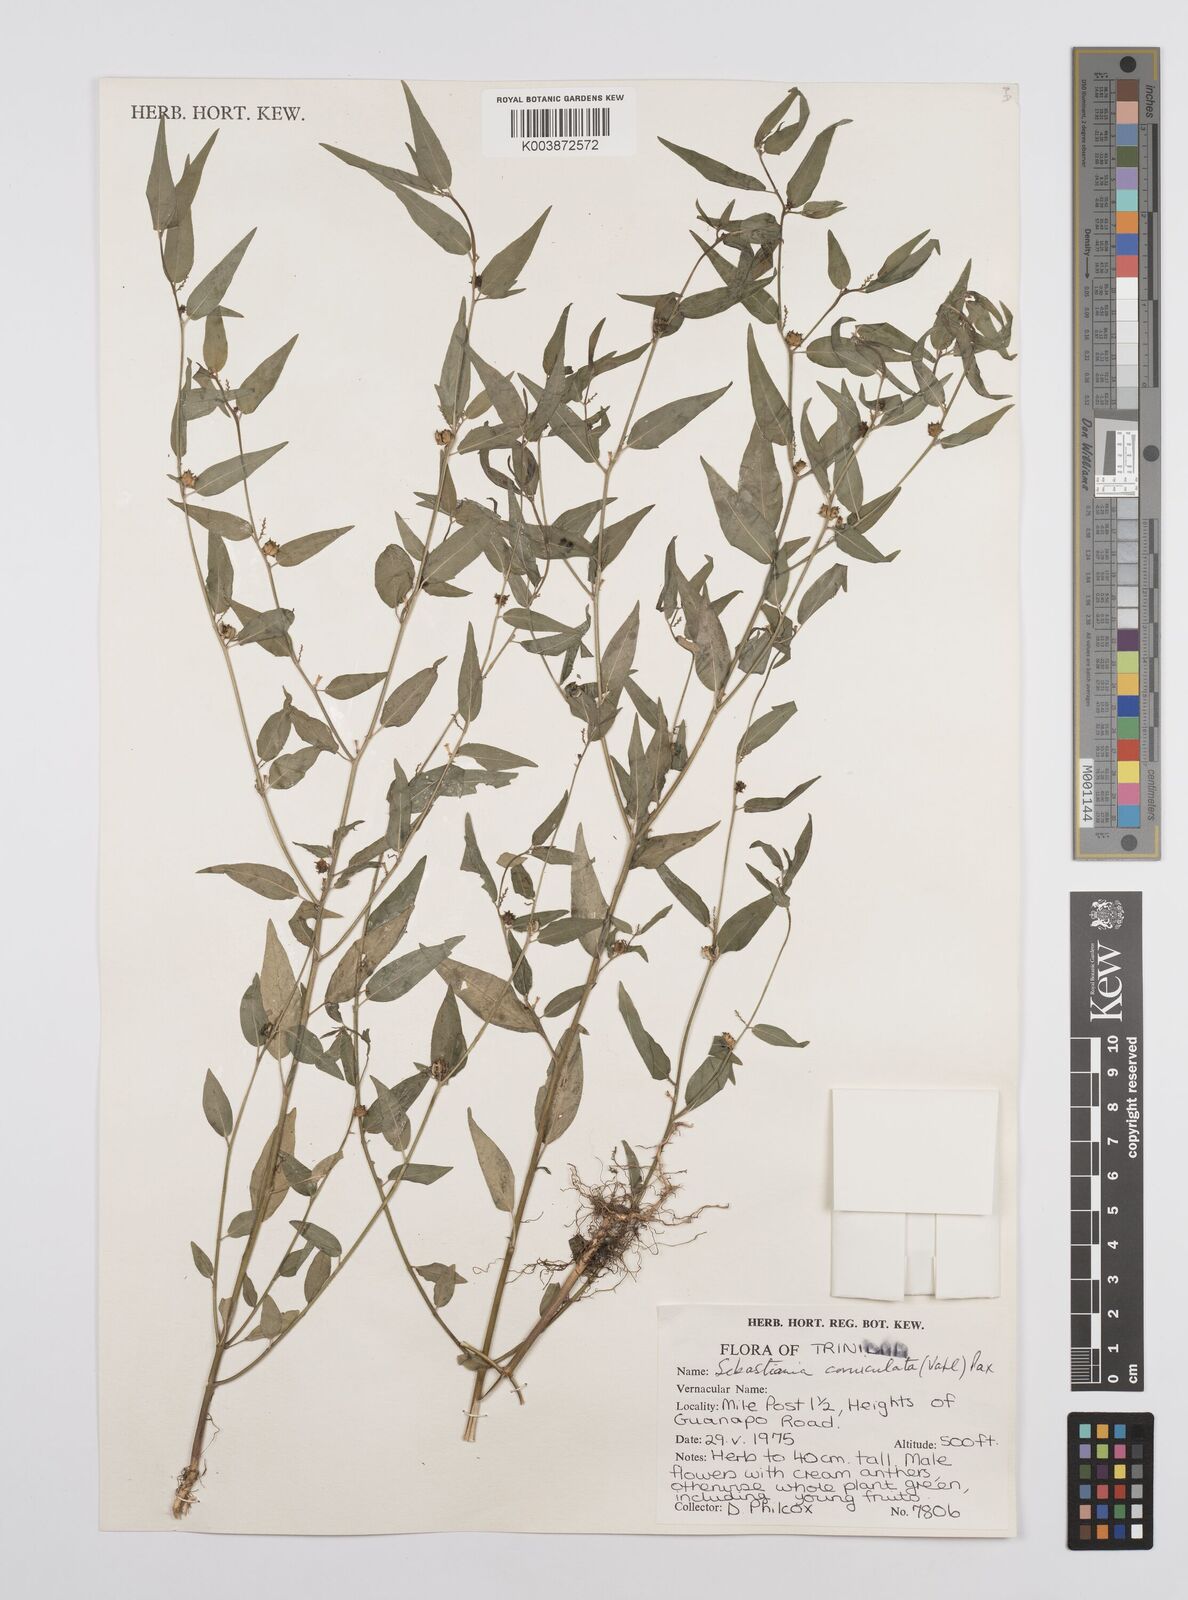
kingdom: Plantae
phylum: Tracheophyta
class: Magnoliopsida
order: Malpighiales
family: Euphorbiaceae
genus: Microstachys
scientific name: Microstachys corniculata
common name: Hato tejas
